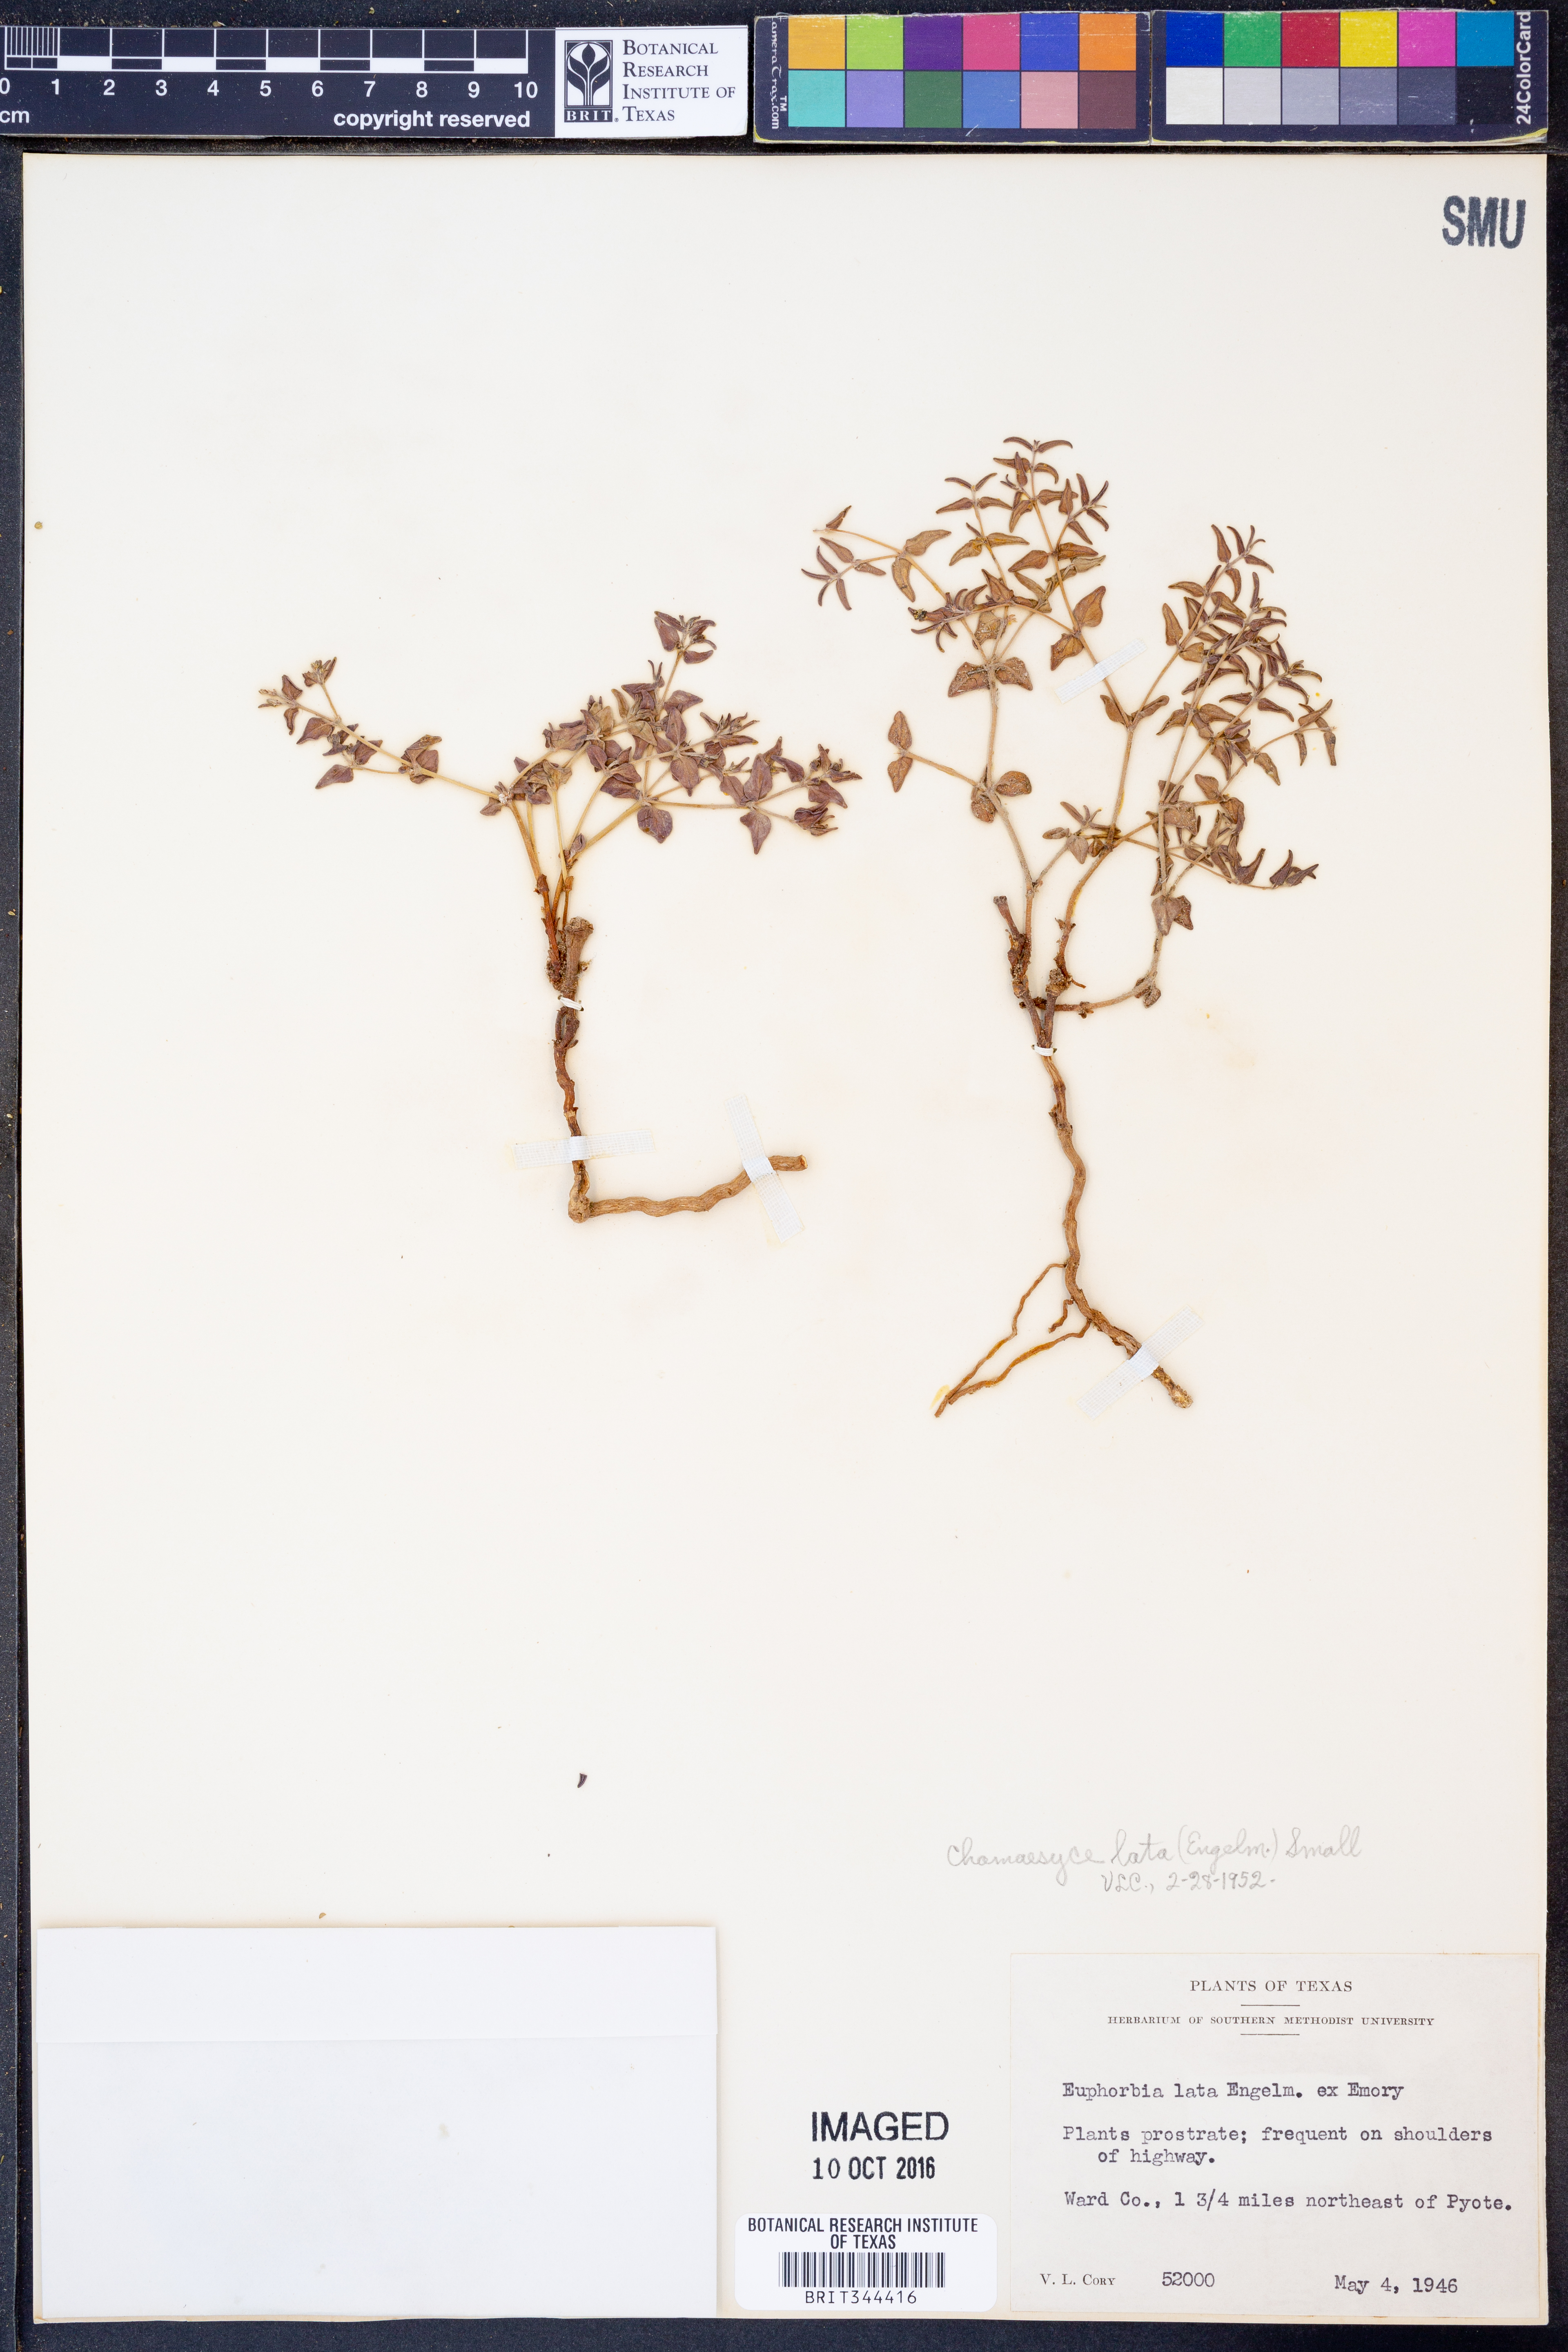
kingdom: Plantae
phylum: Tracheophyta
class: Magnoliopsida
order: Malpighiales
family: Euphorbiaceae
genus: Euphorbia
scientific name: Euphorbia lata
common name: Hoary euphorbia
